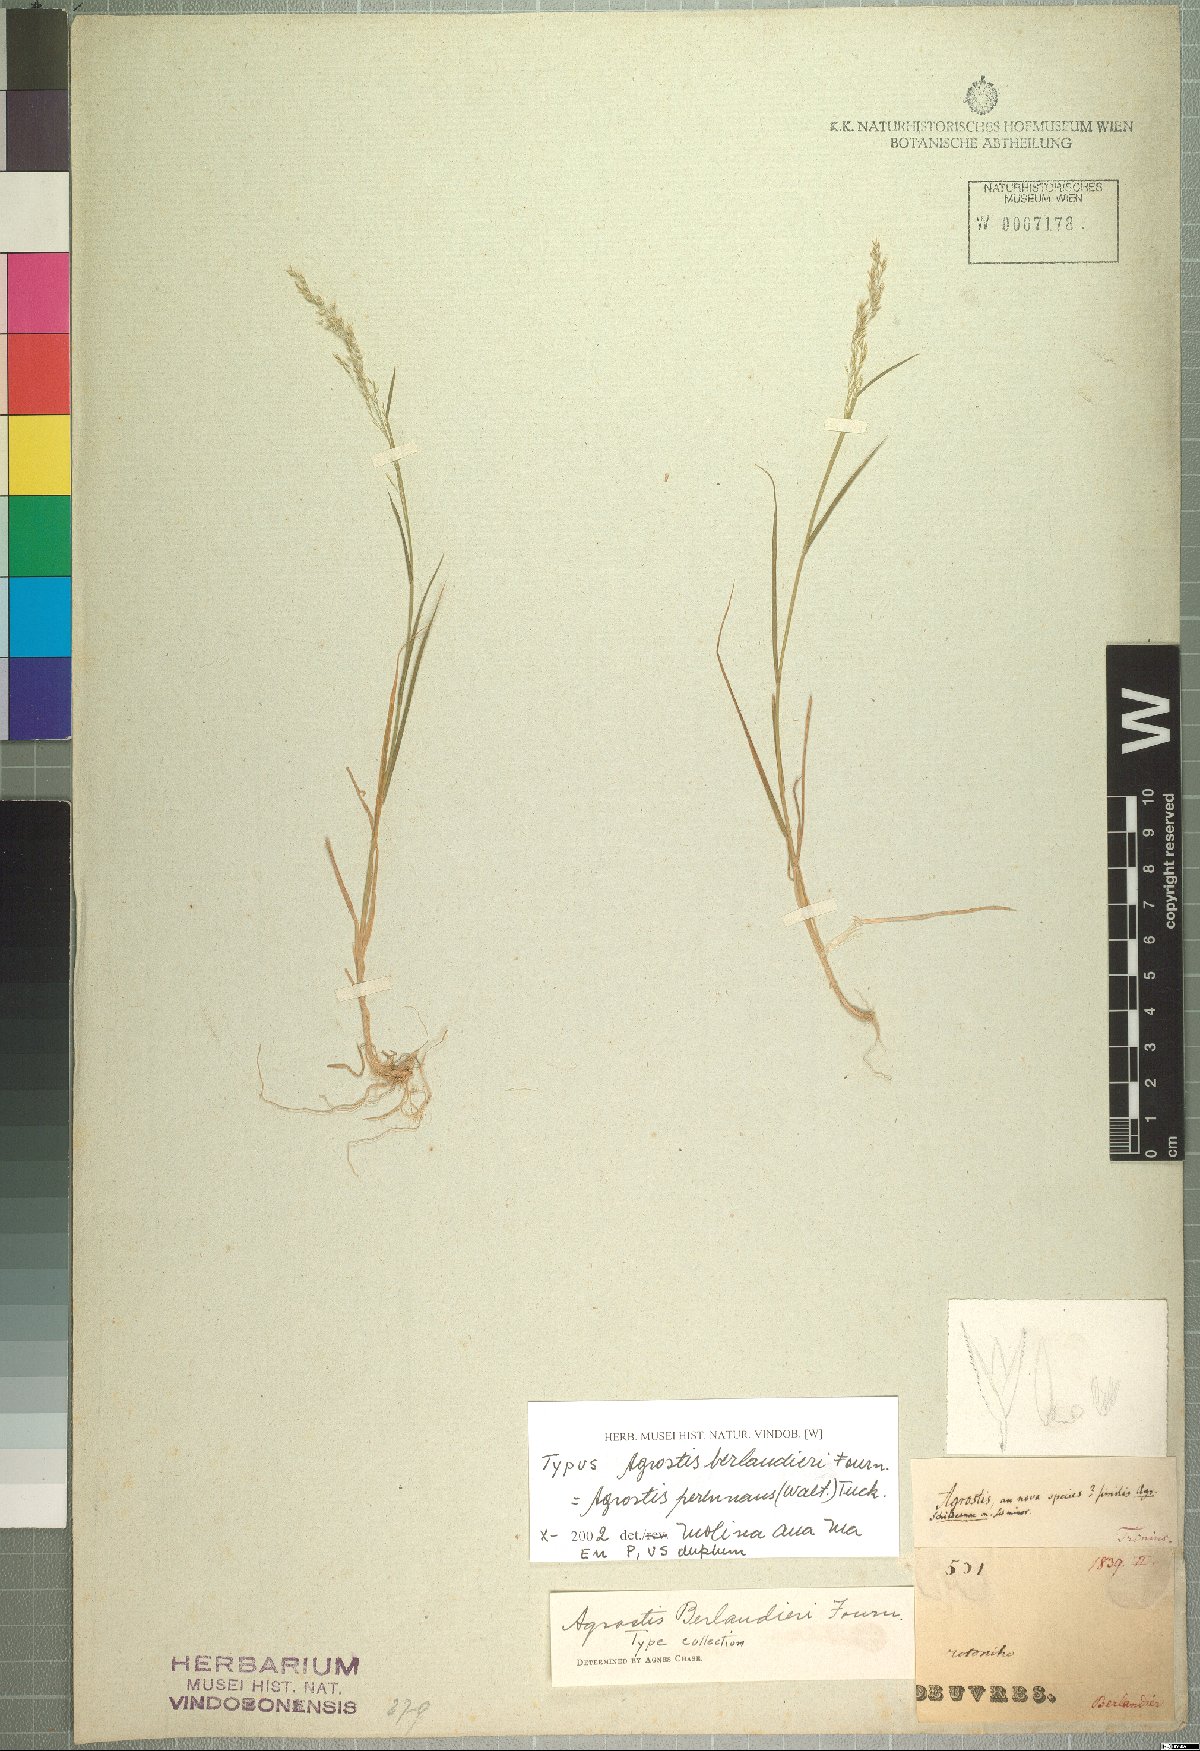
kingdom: Plantae
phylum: Tracheophyta
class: Liliopsida
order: Poales
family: Poaceae
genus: Agrostis
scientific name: Agrostis exarata
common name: Spike bent
